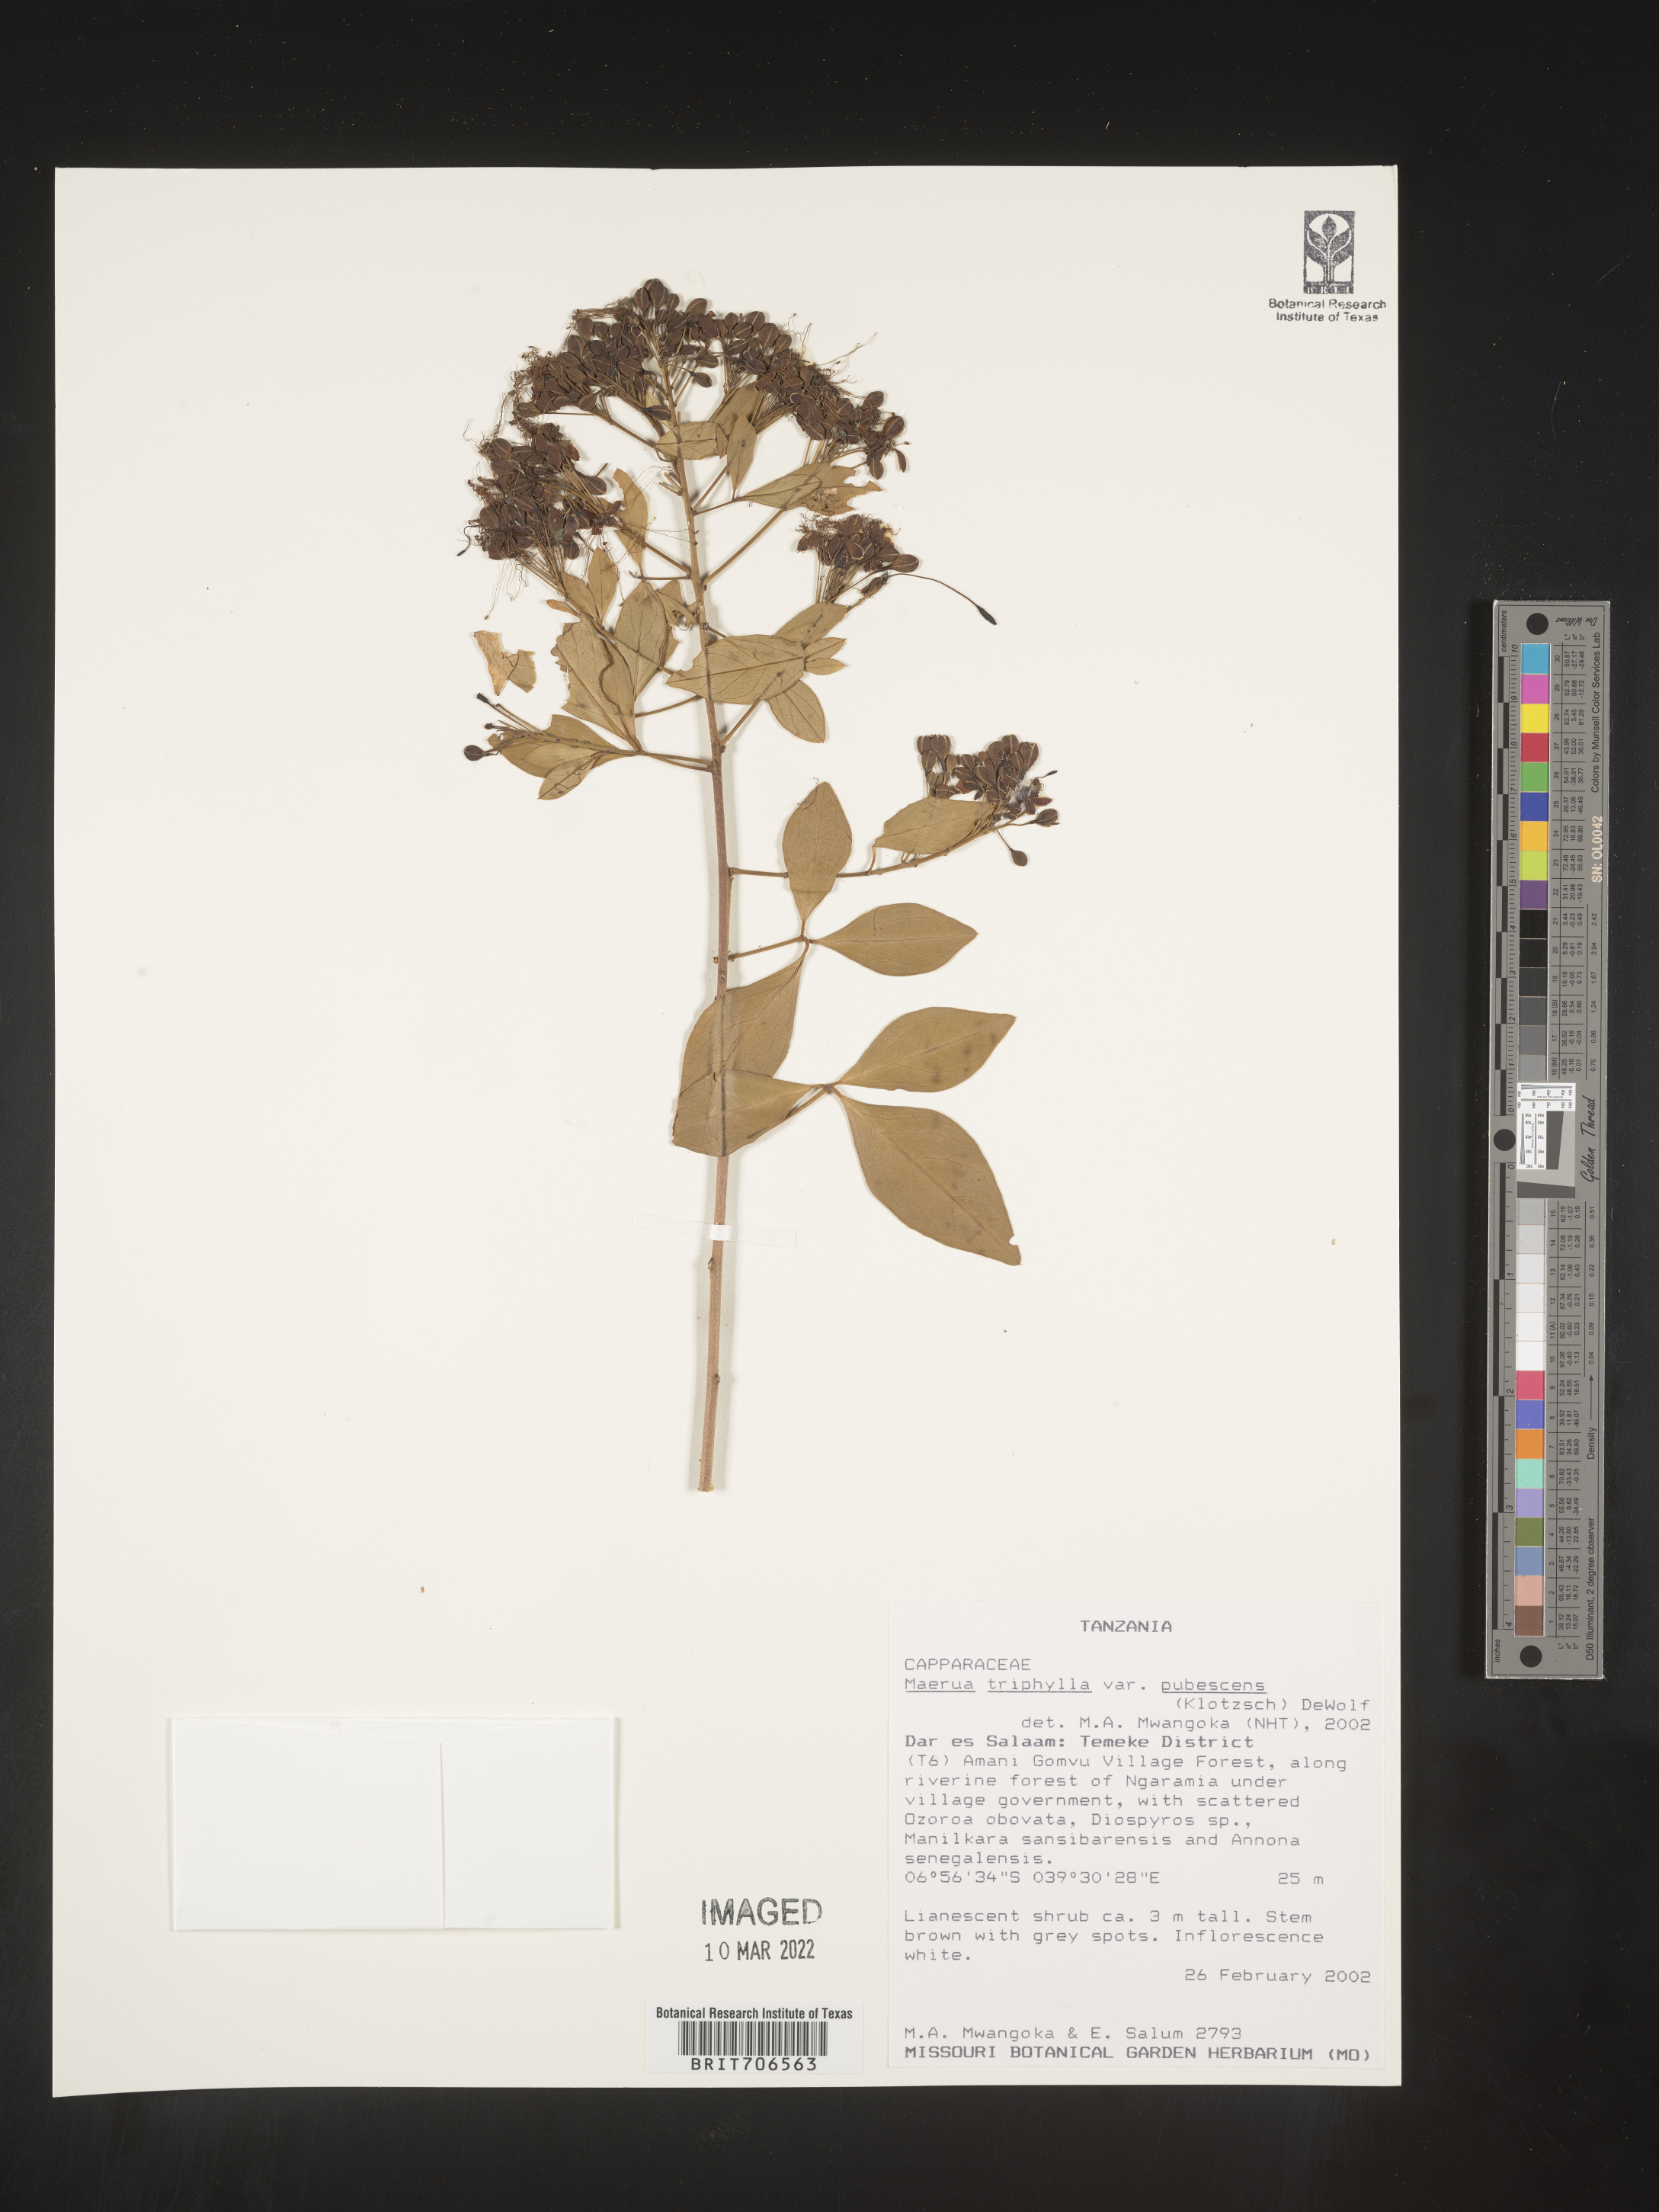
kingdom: Plantae
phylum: Tracheophyta
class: Magnoliopsida
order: Brassicales
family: Capparaceae
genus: Maerua
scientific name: Maerua
